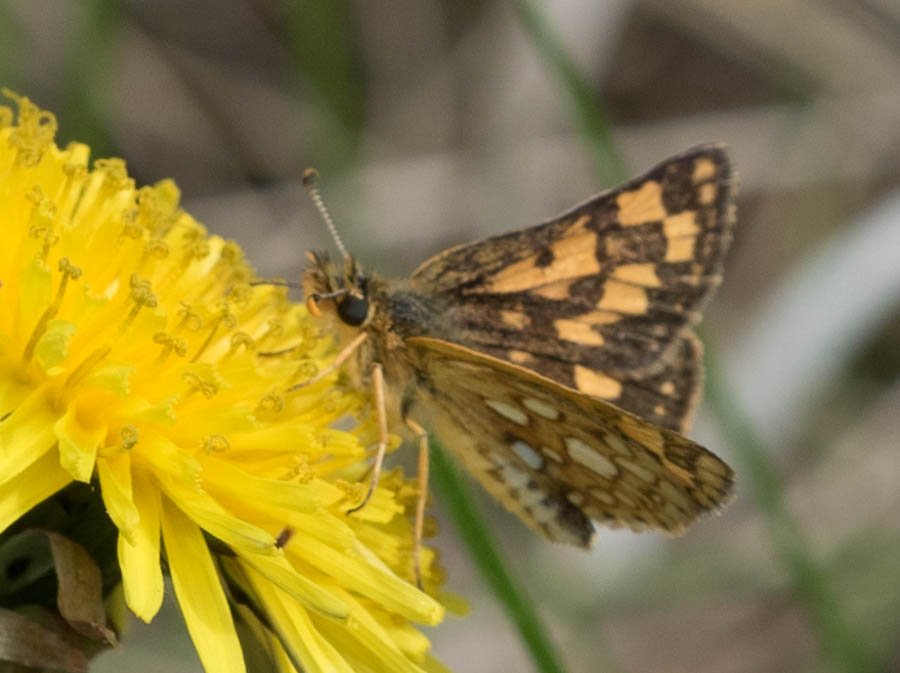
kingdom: Animalia
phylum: Arthropoda
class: Insecta
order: Lepidoptera
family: Hesperiidae
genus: Carterocephalus
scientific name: Carterocephalus palaemon
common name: Chequered Skipper
